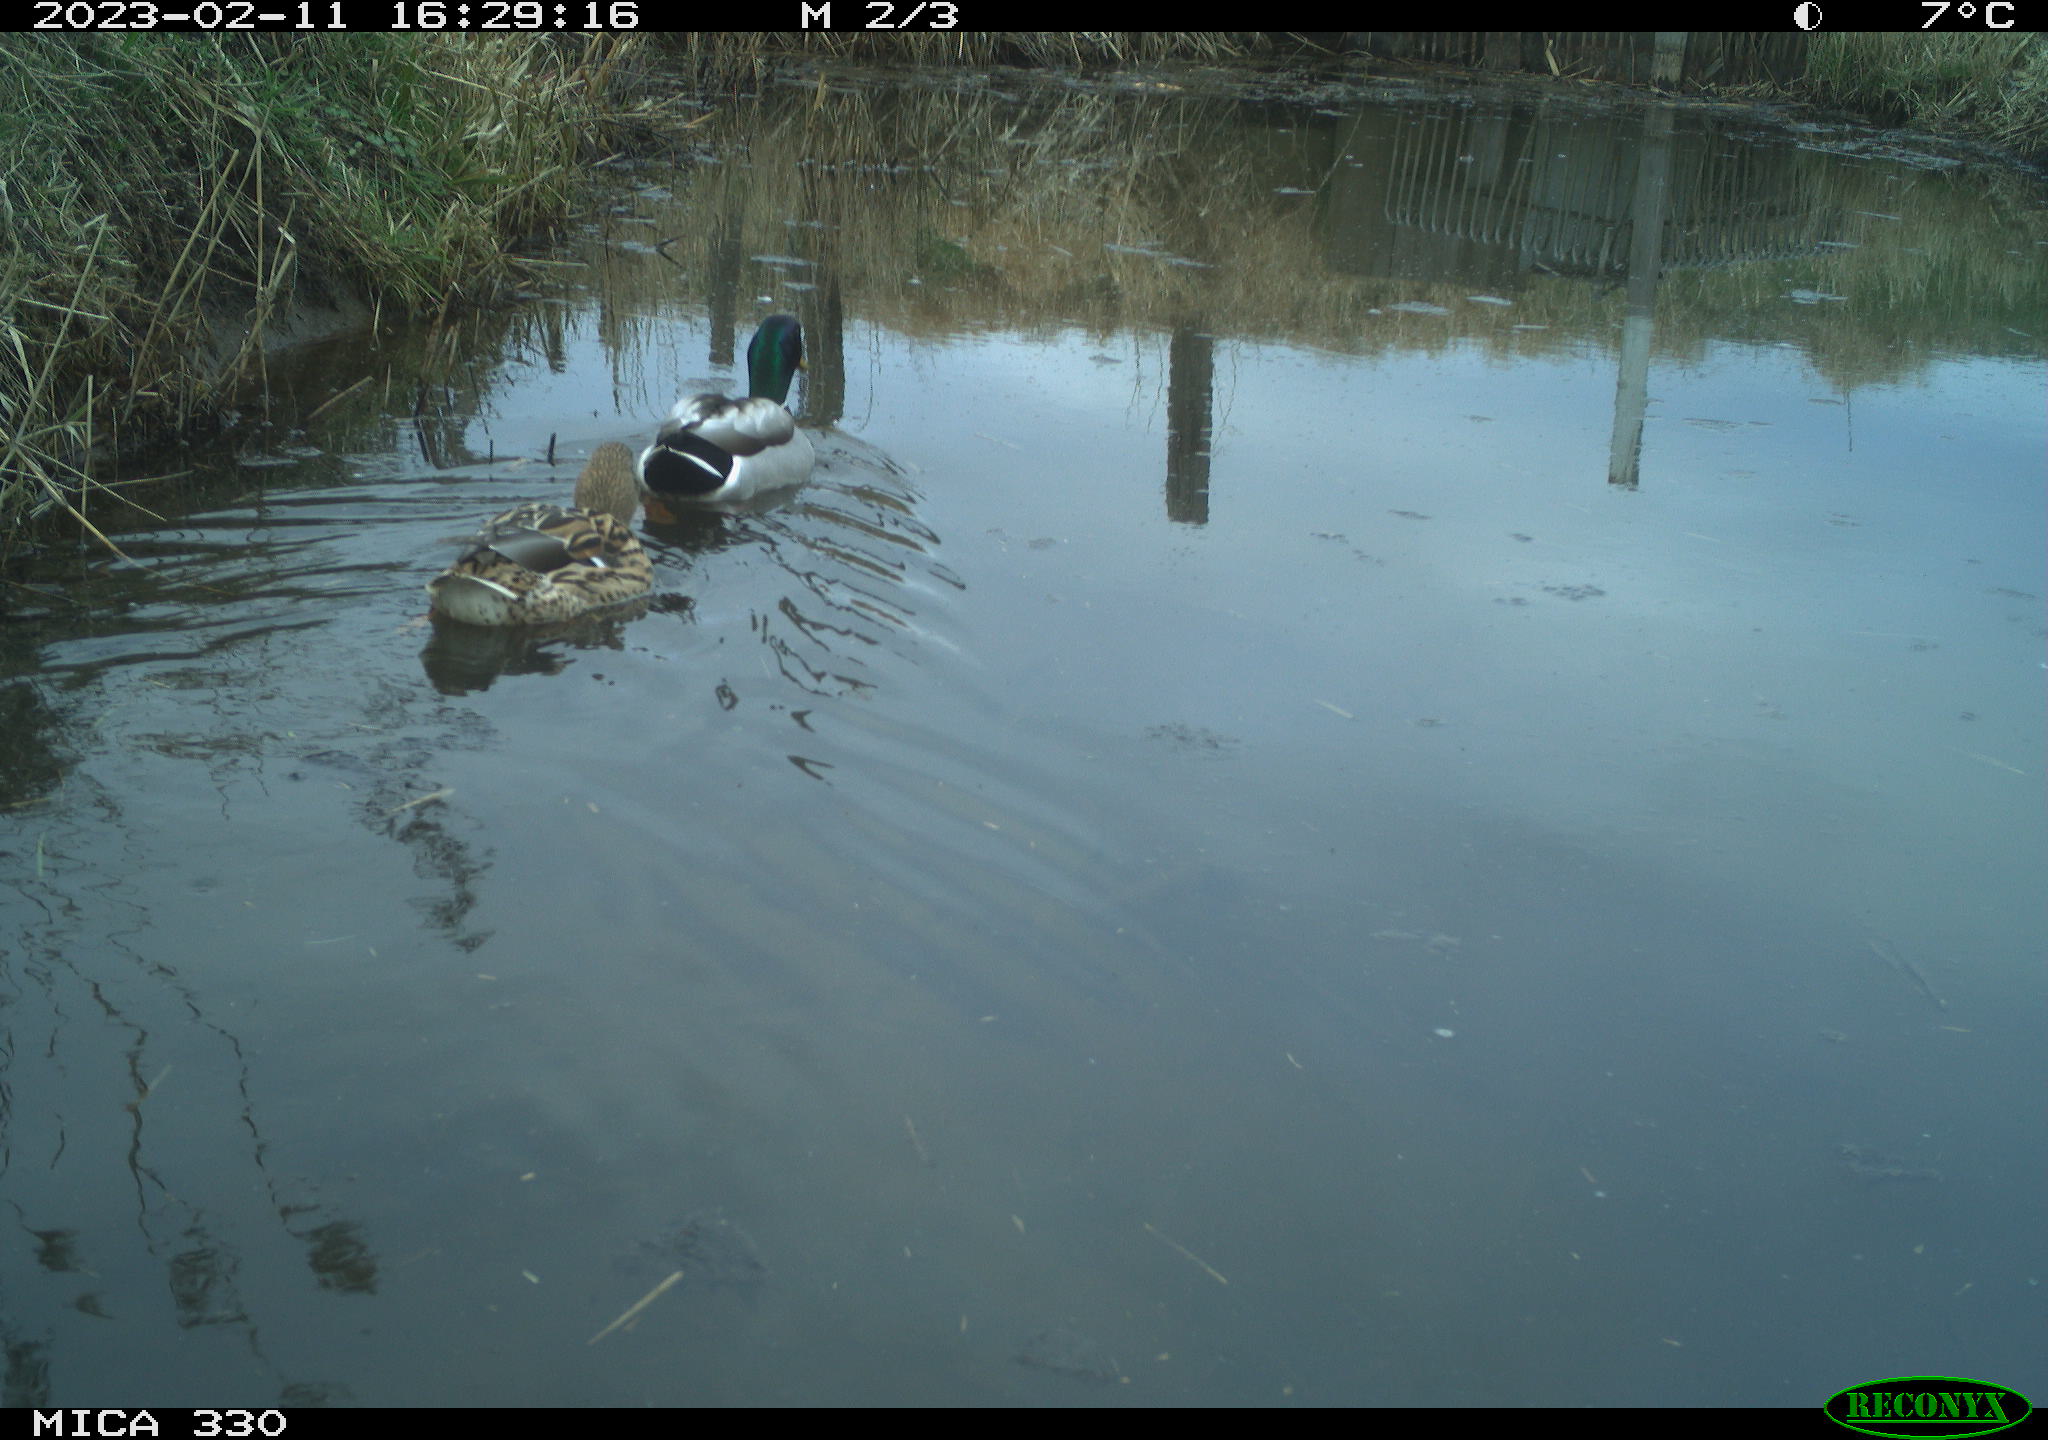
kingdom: Animalia
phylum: Chordata
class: Aves
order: Anseriformes
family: Anatidae
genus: Anas
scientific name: Anas
